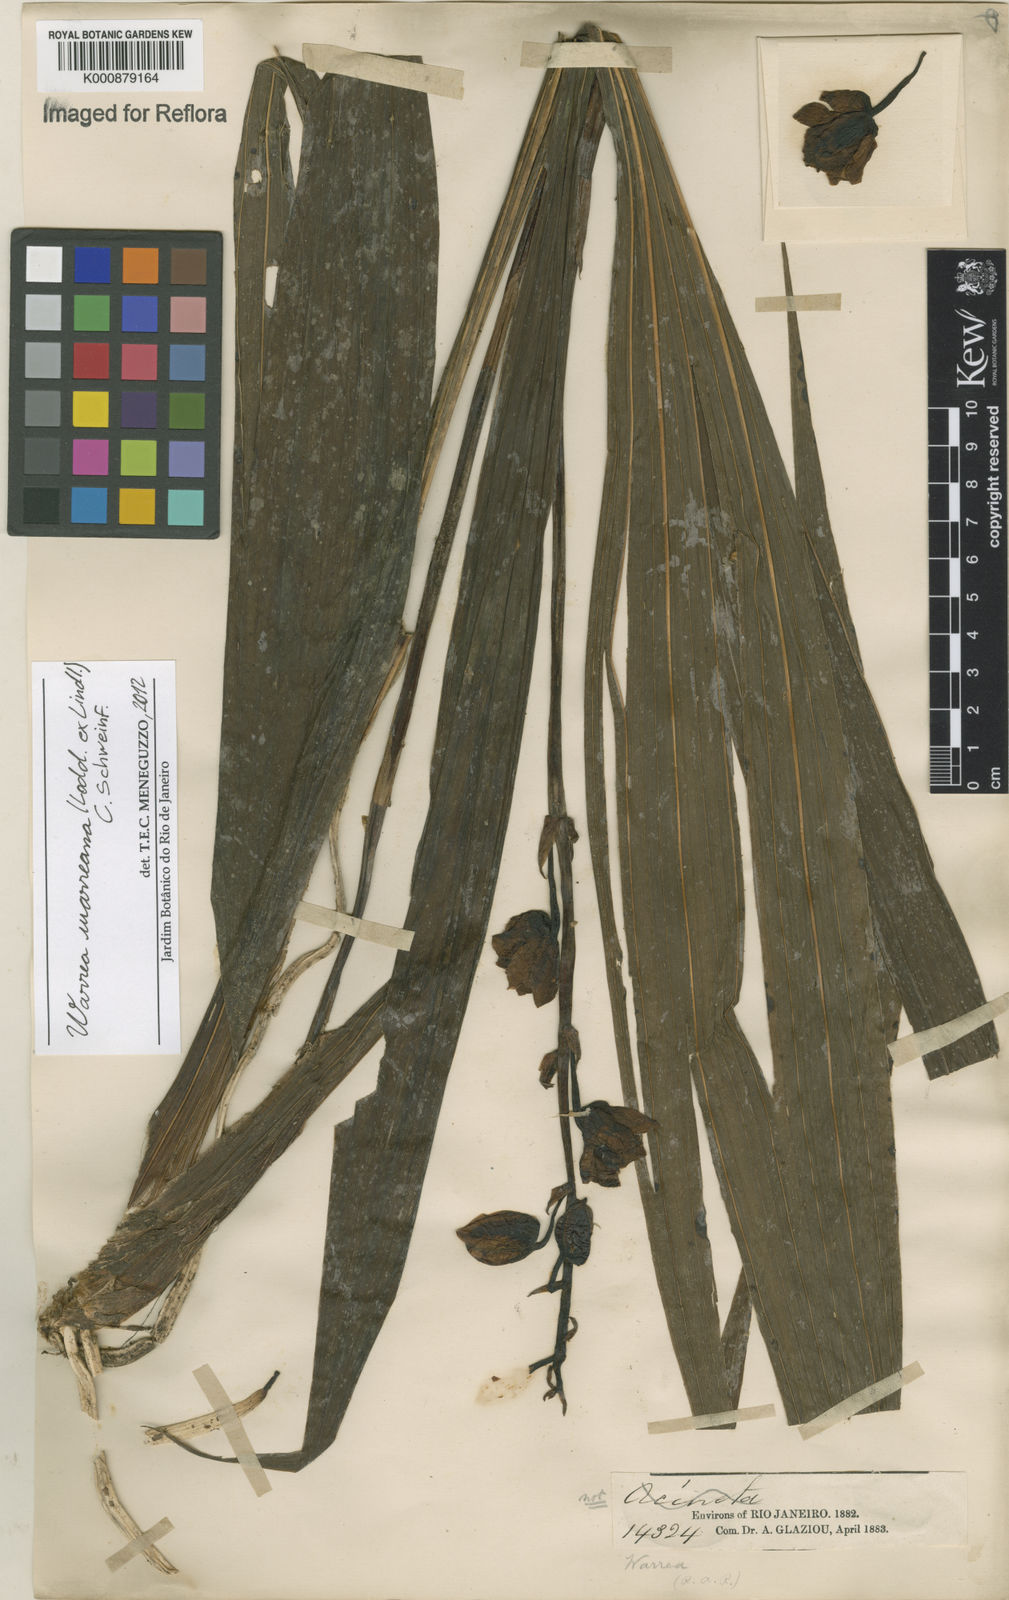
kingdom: Plantae
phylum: Tracheophyta
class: Liliopsida
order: Asparagales
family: Orchidaceae
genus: Warrea
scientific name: Warrea warreana
